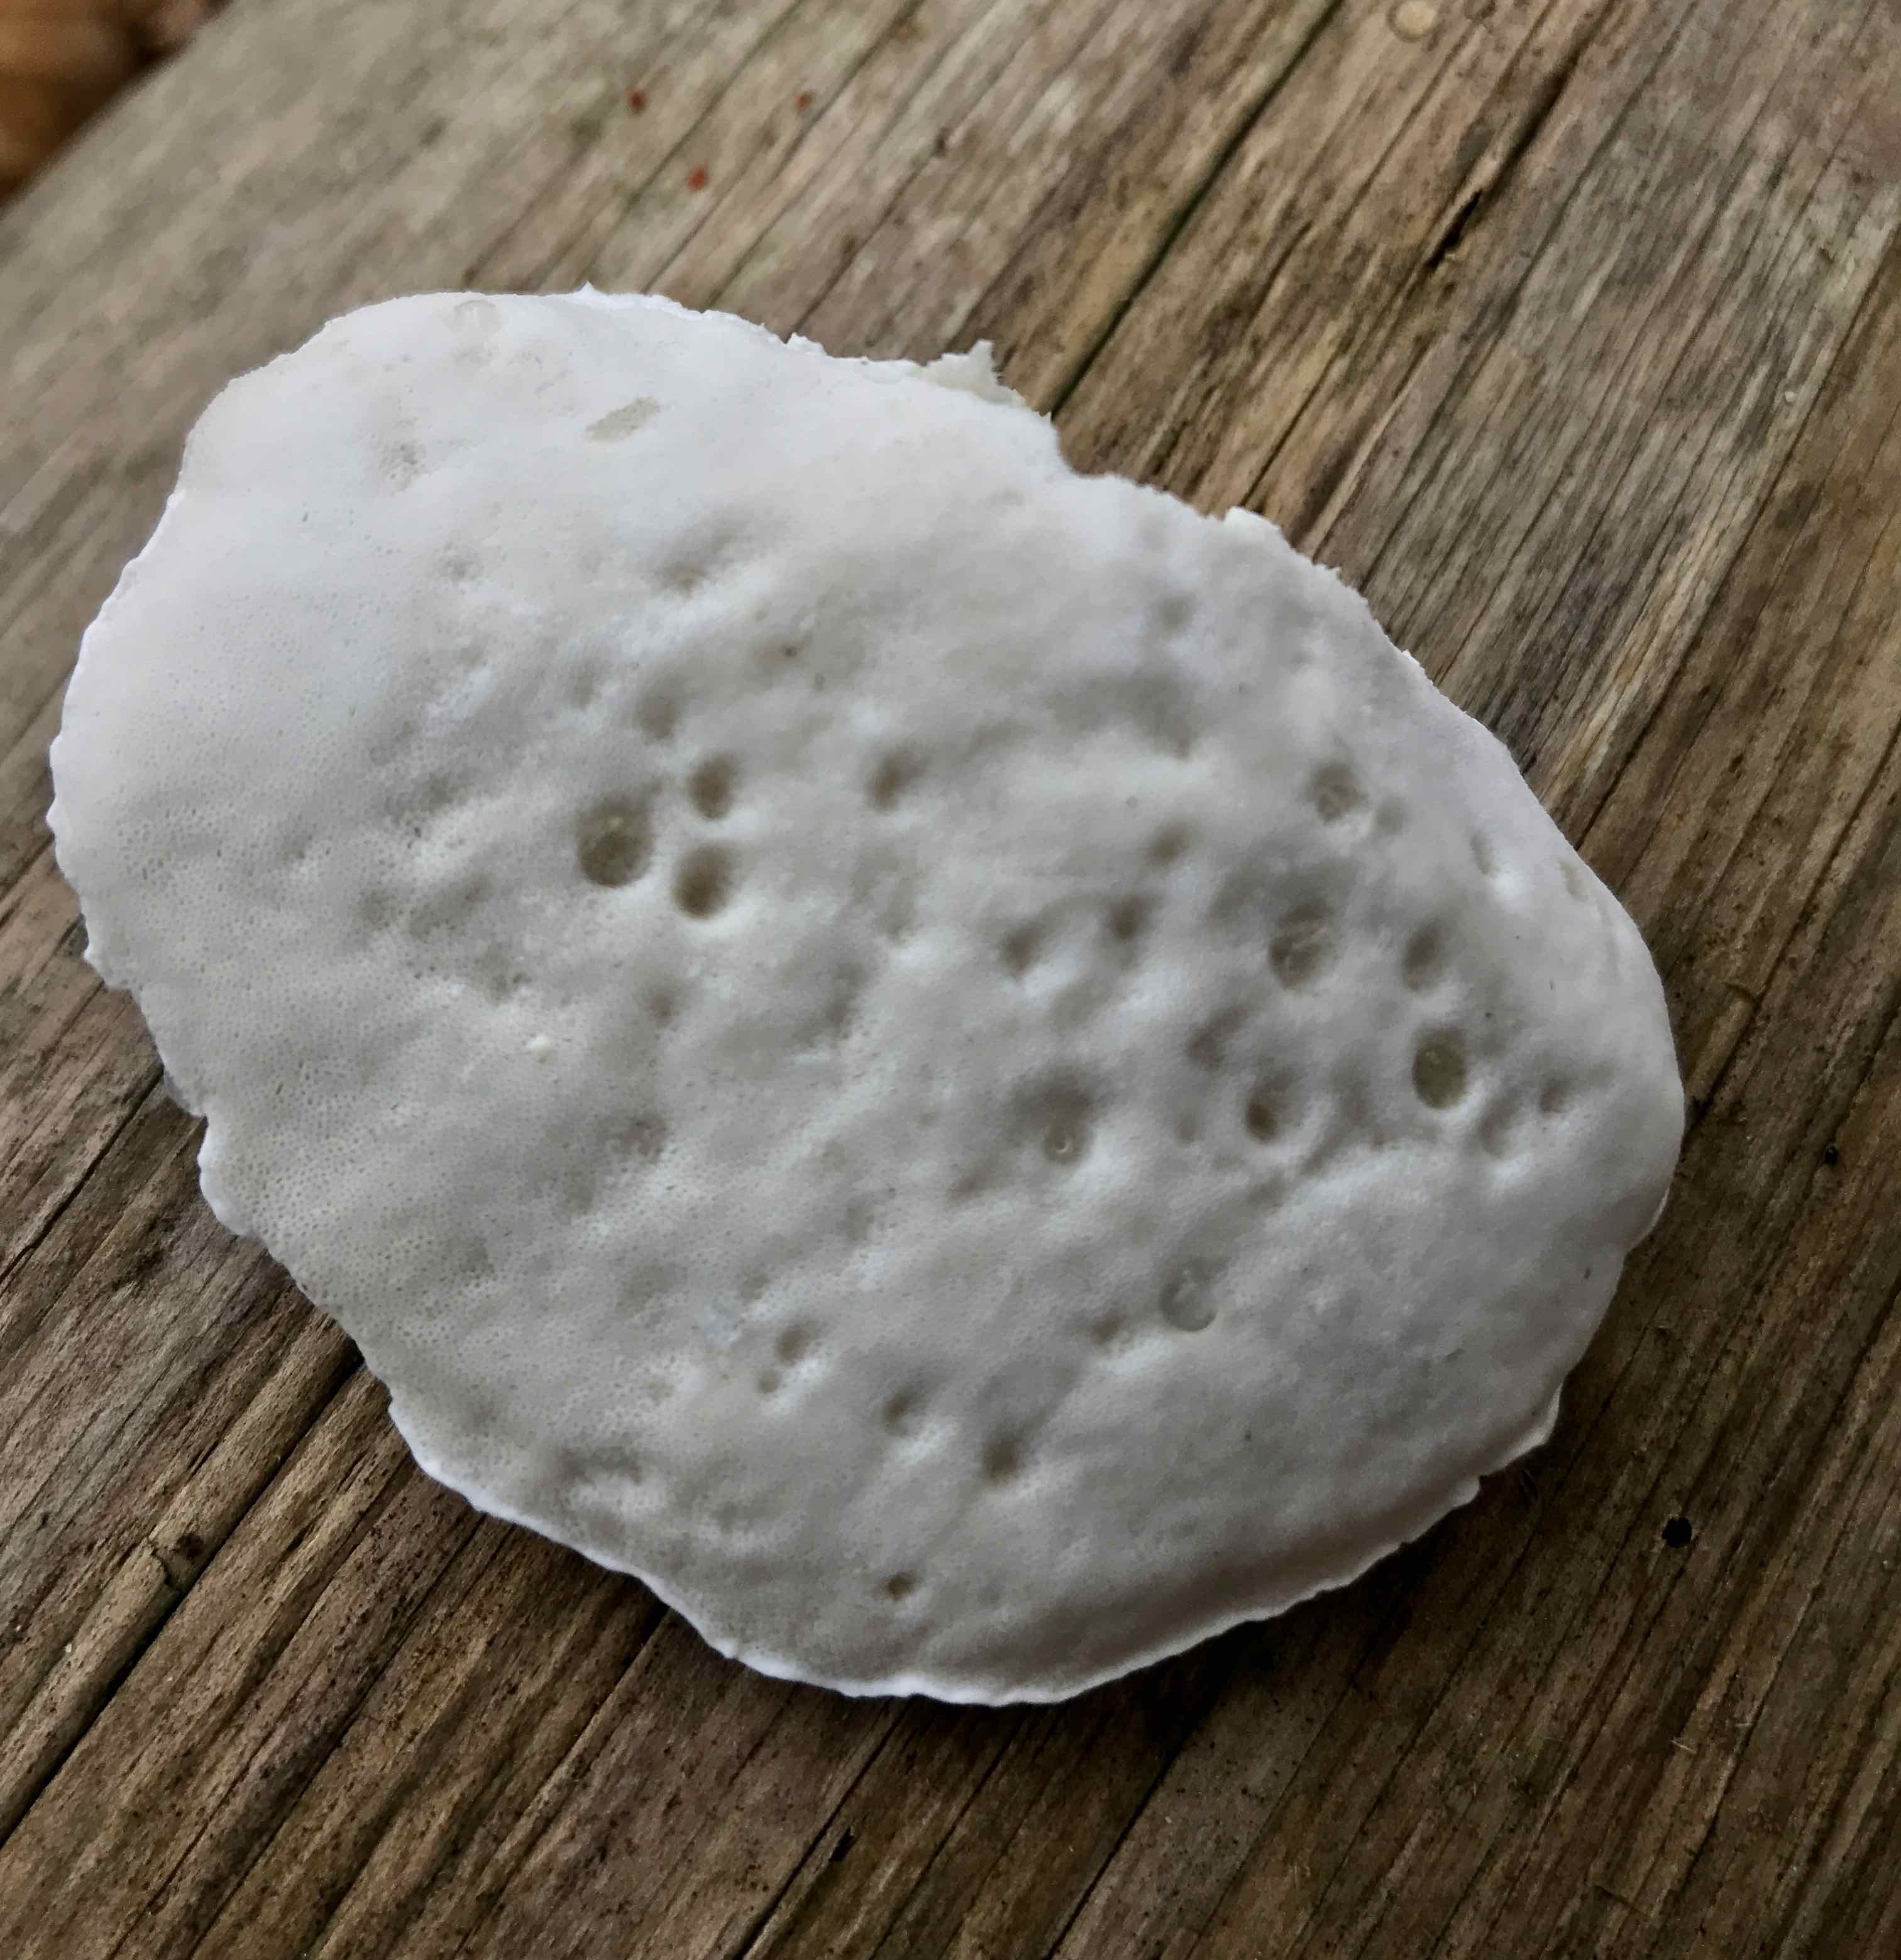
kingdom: Fungi
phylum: Basidiomycota
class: Agaricomycetes
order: Polyporales
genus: Amaropostia
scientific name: Amaropostia stiptica
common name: bitter kødporesvamp
